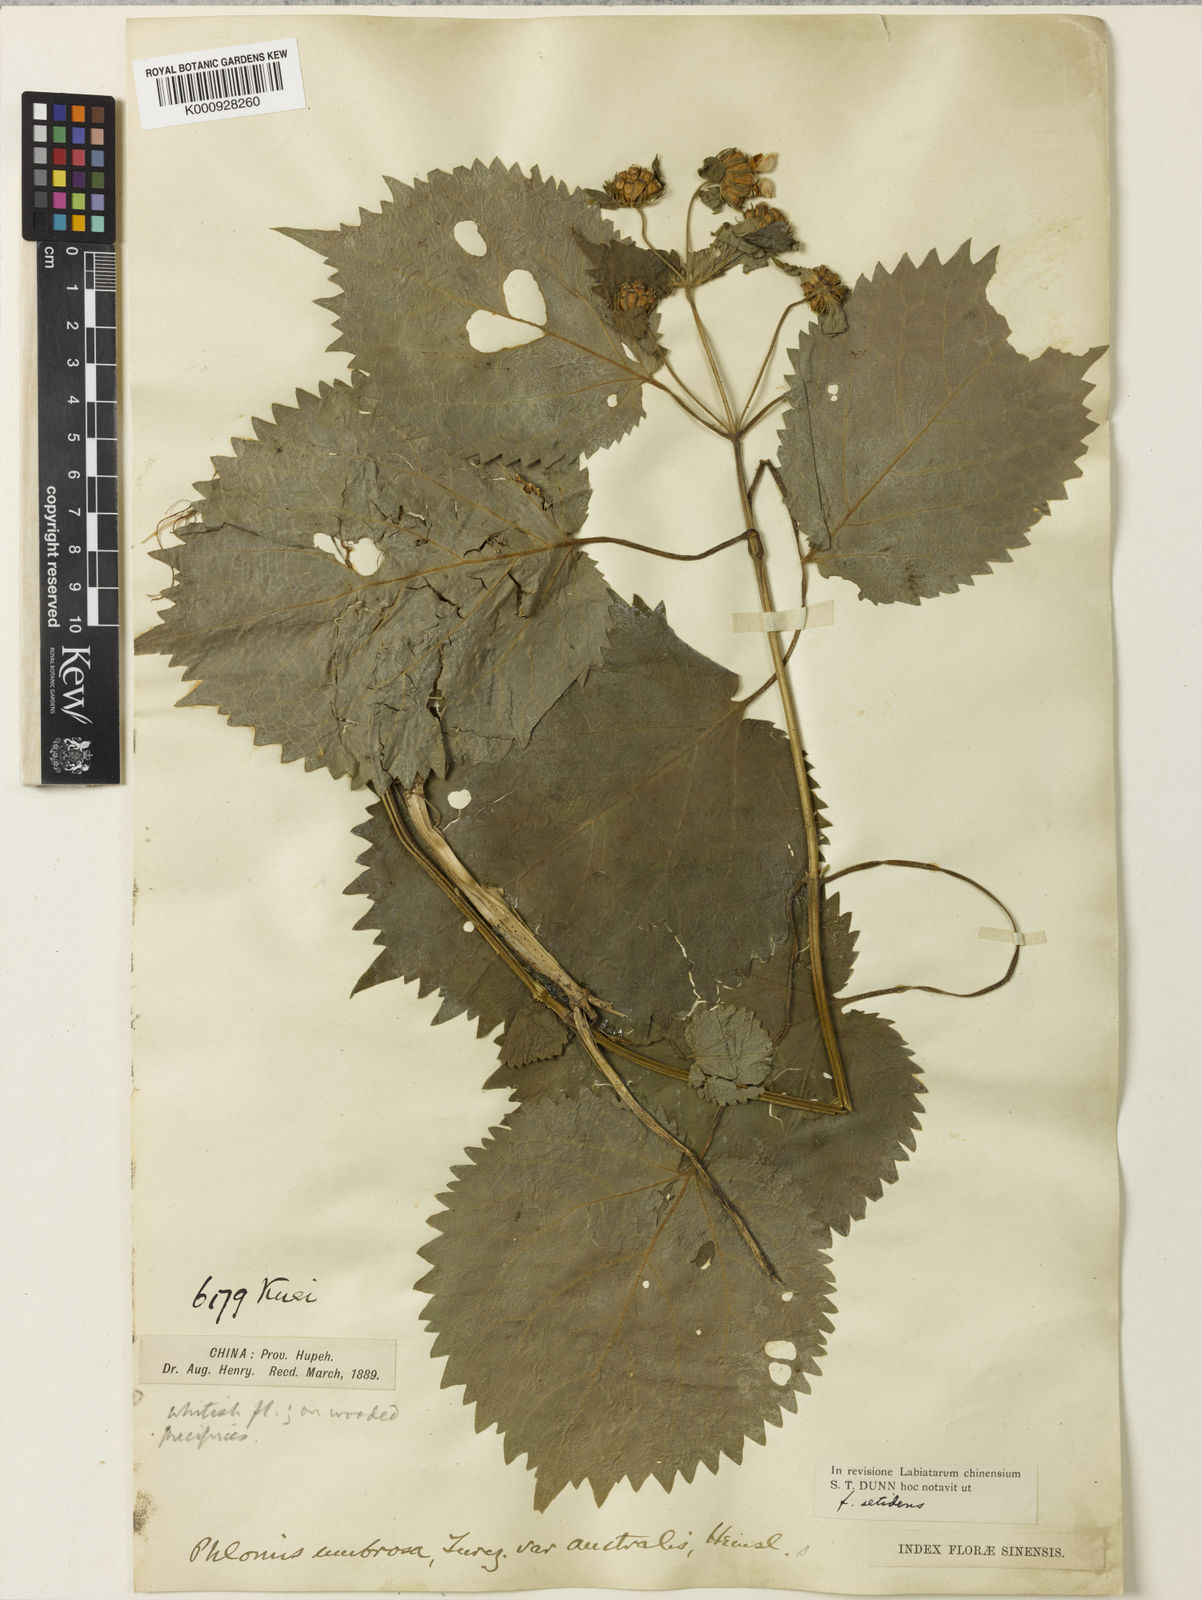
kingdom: Plantae
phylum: Tracheophyta
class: Magnoliopsida
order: Lamiales
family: Lamiaceae
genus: Phlomoides
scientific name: Phlomoides umbrosa
